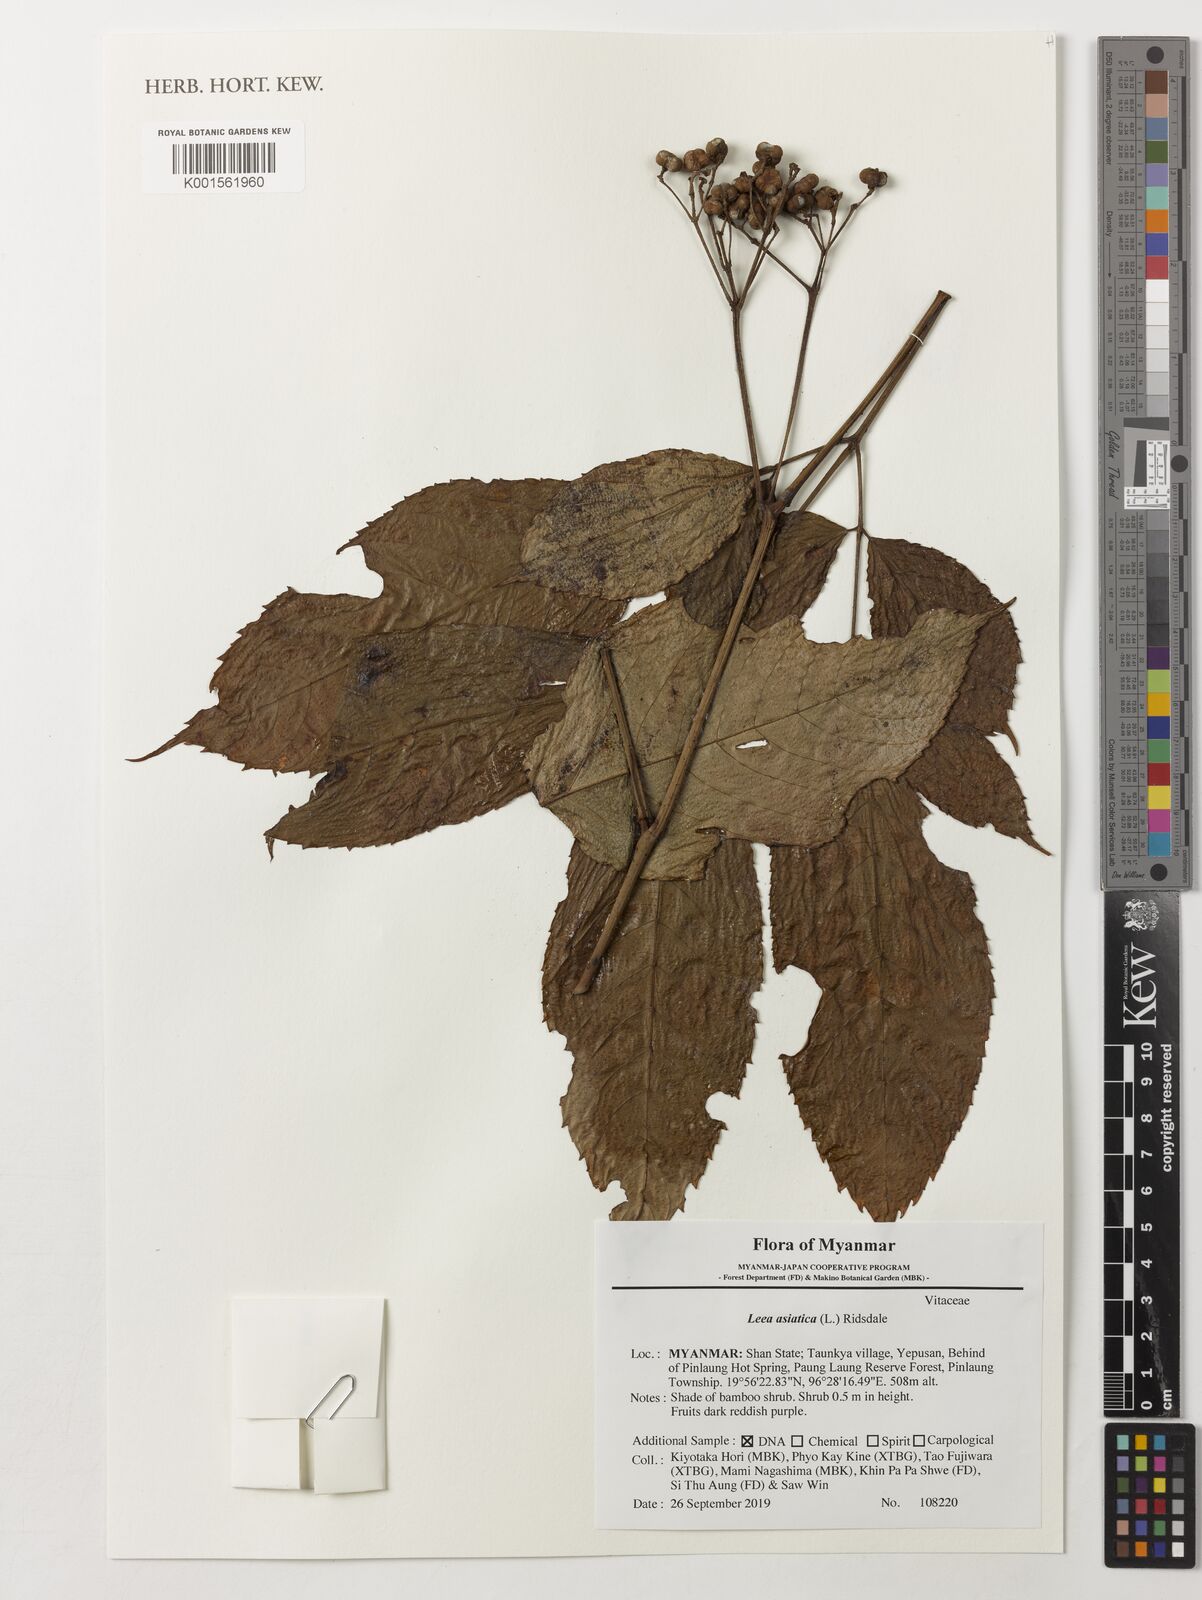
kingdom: Plantae
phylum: Tracheophyta
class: Magnoliopsida
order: Vitales
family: Vitaceae
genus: Leea
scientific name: Leea asiatica
